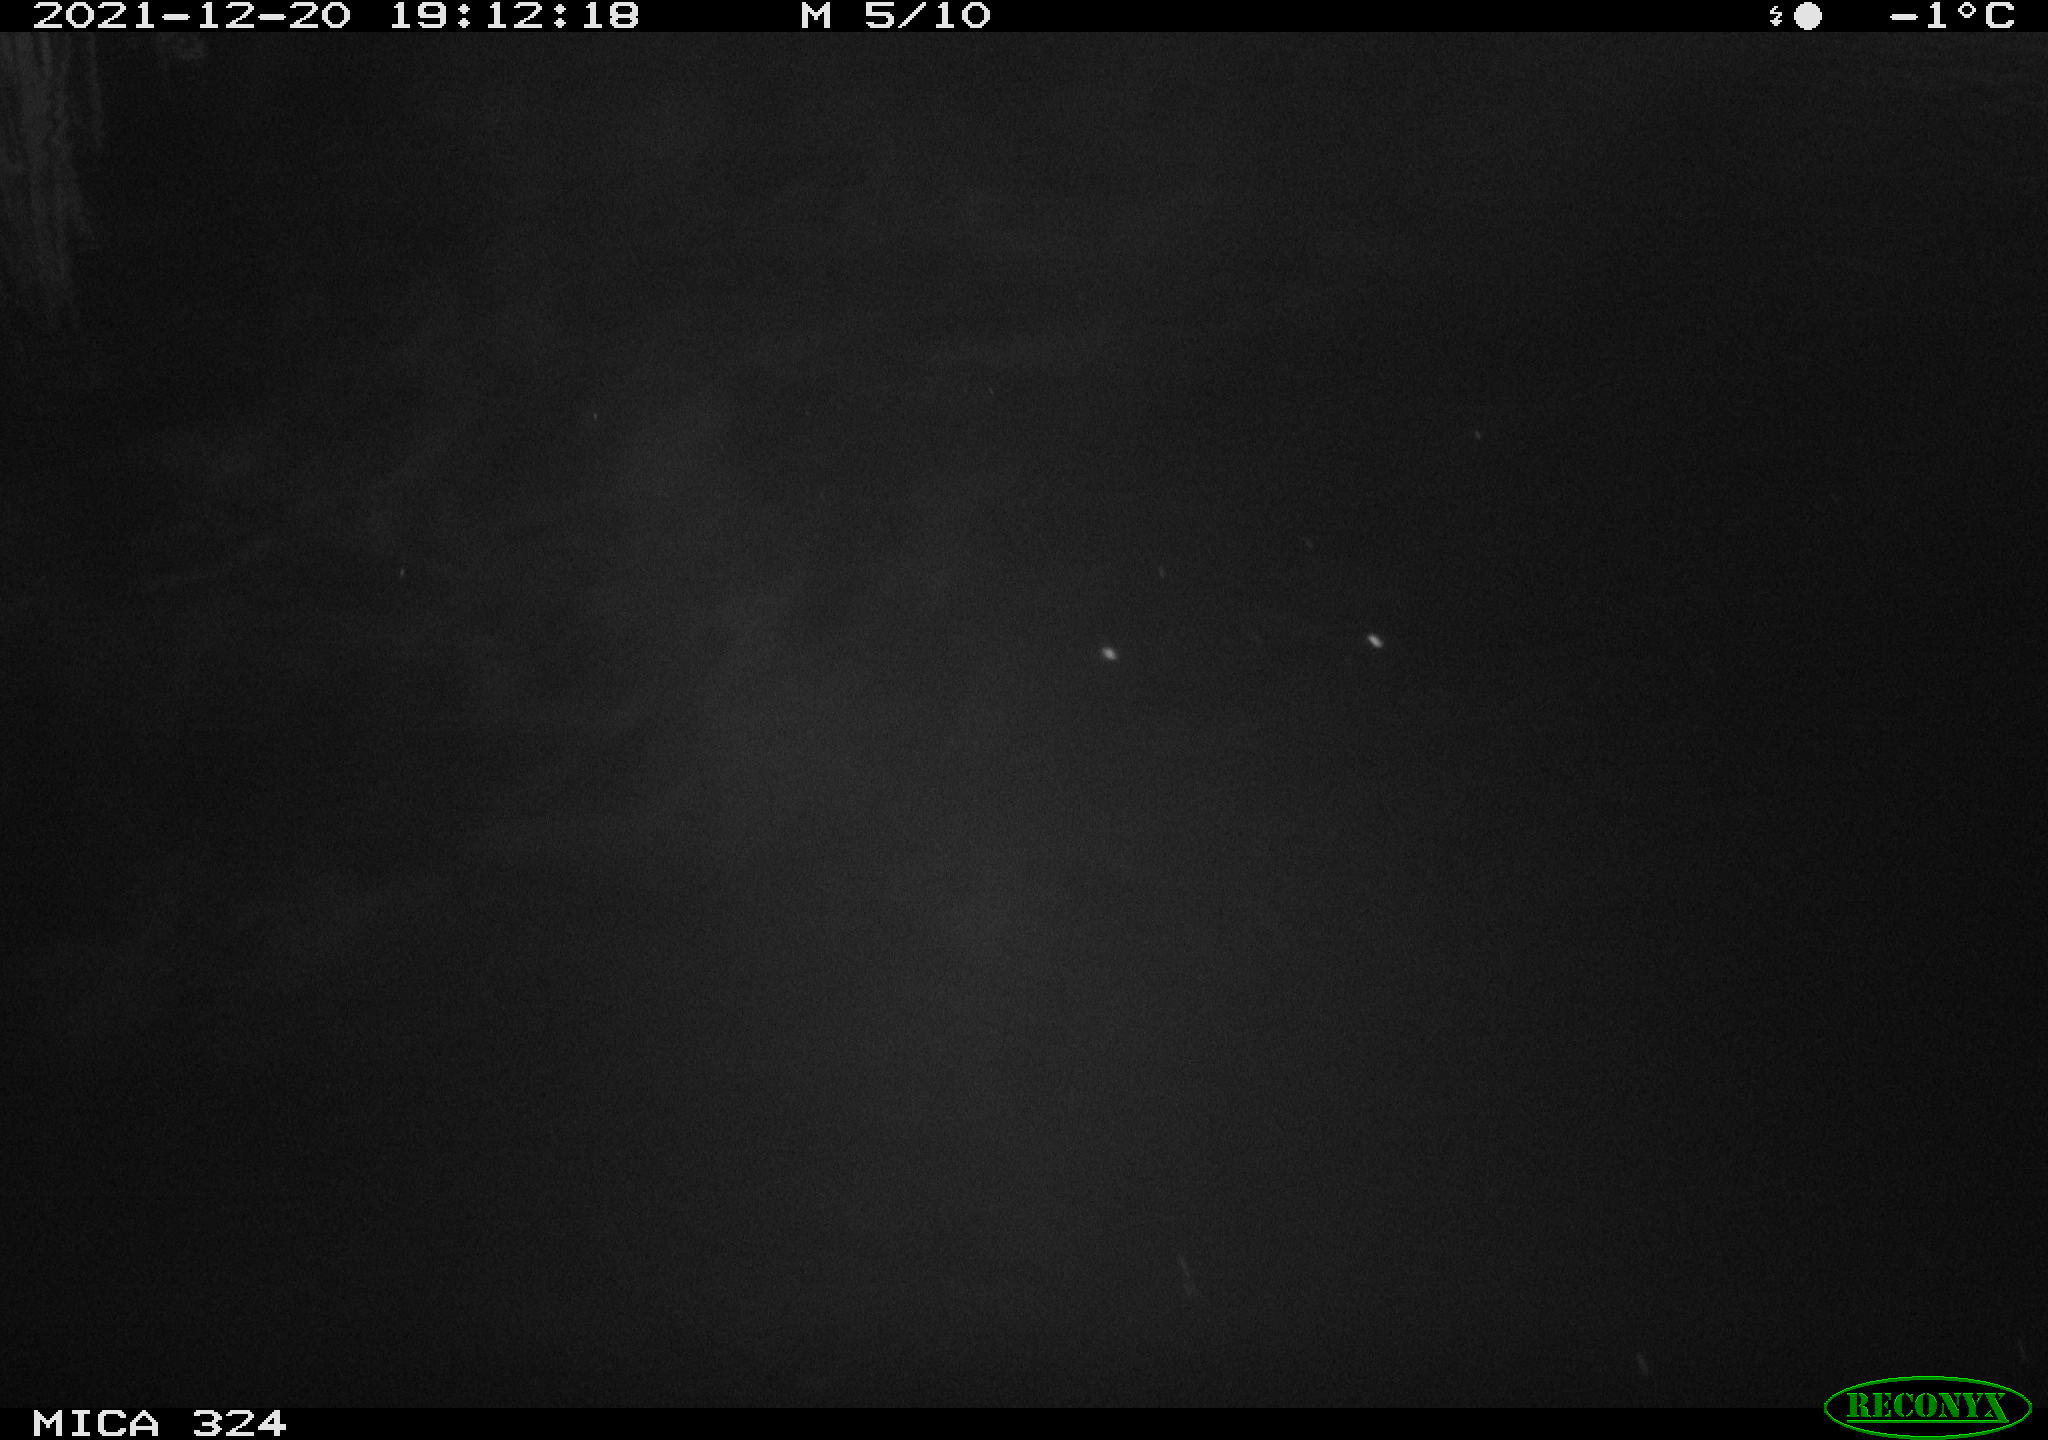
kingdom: Animalia
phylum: Chordata
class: Mammalia
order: Rodentia
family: Cricetidae
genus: Ondatra
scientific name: Ondatra zibethicus
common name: Muskrat
